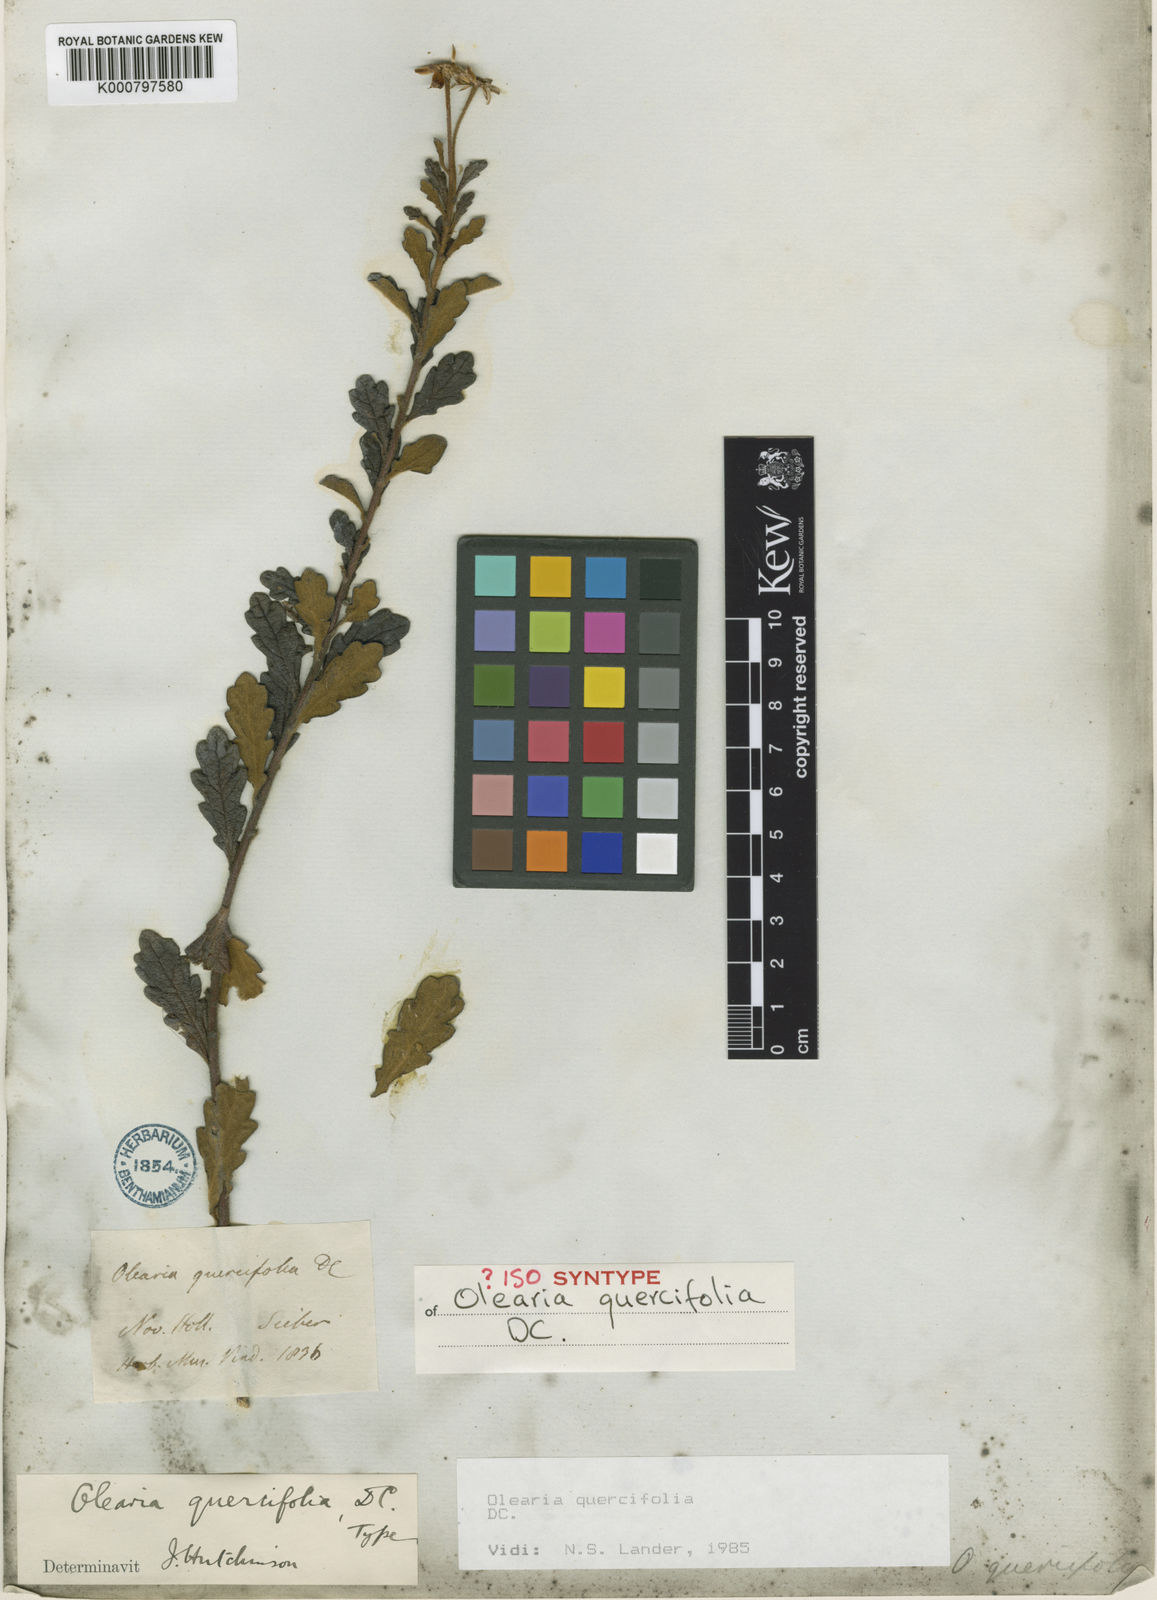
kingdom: Plantae
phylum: Tracheophyta
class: Magnoliopsida
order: Asterales
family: Asteraceae
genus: Olearia
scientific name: Olearia quercifolia
